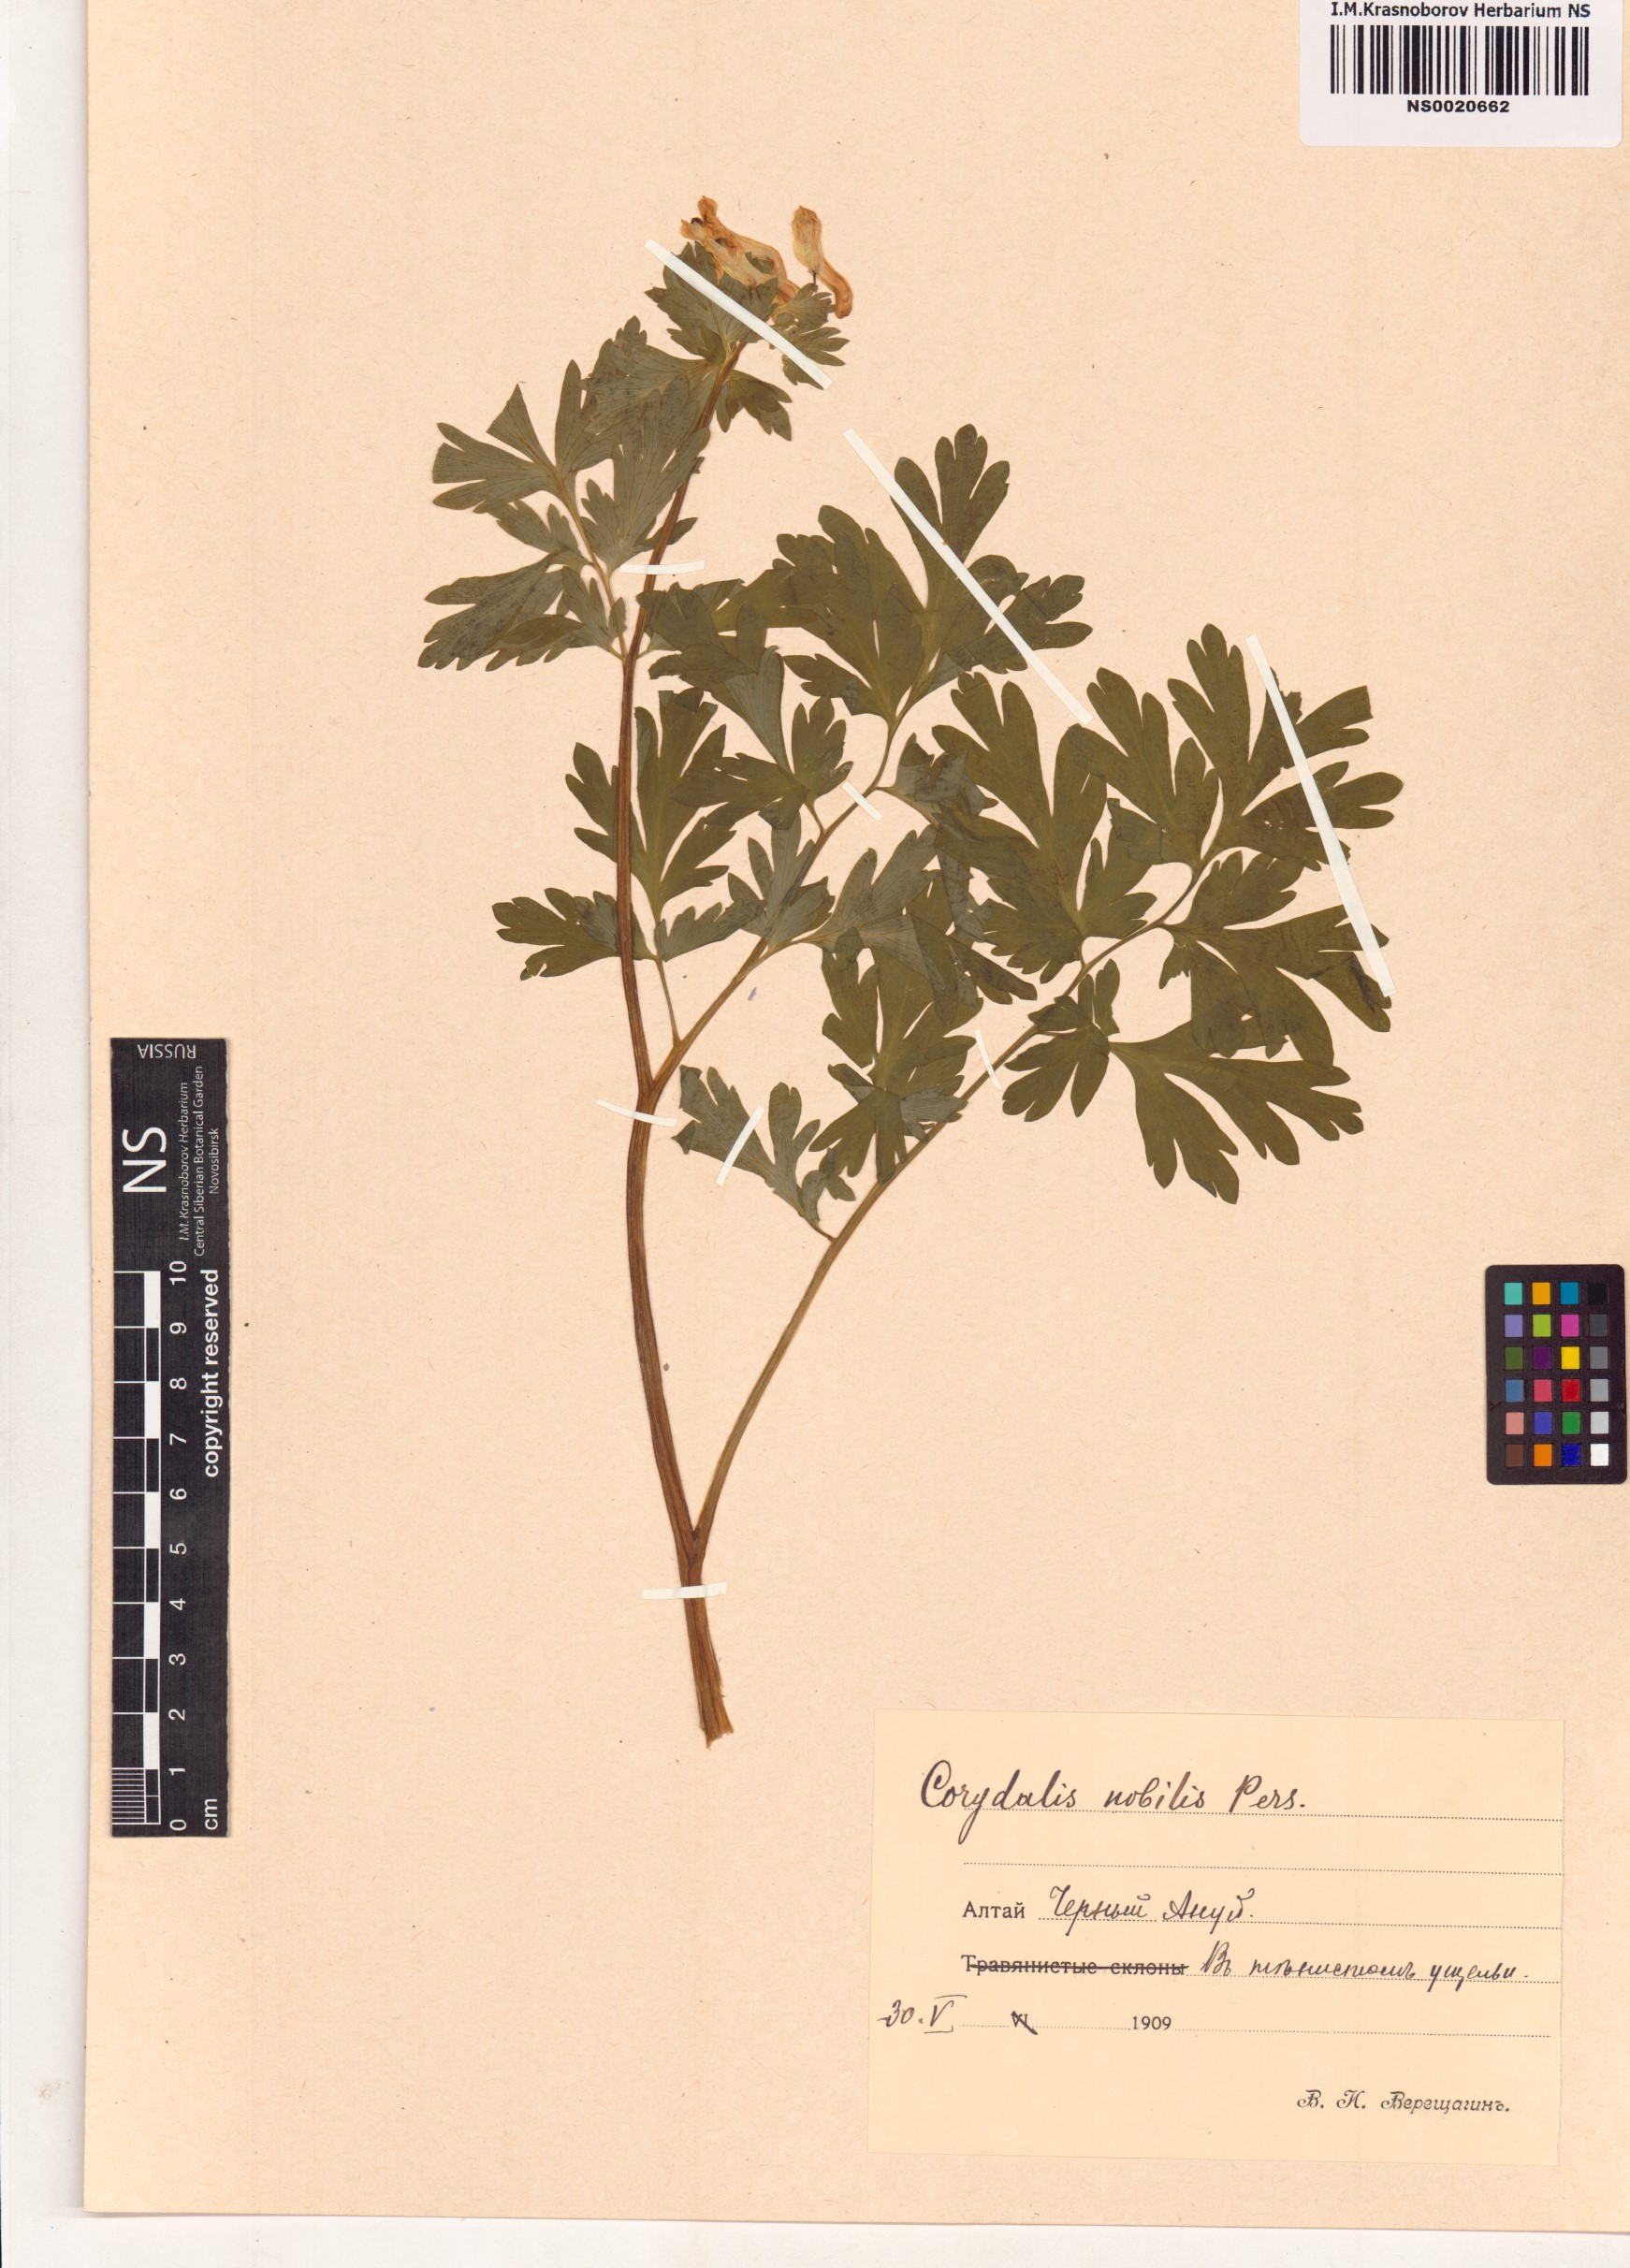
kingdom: Plantae
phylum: Tracheophyta
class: Magnoliopsida
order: Ranunculales
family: Papaveraceae
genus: Corydalis
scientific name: Corydalis nobilis
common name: Siberian corydalis
